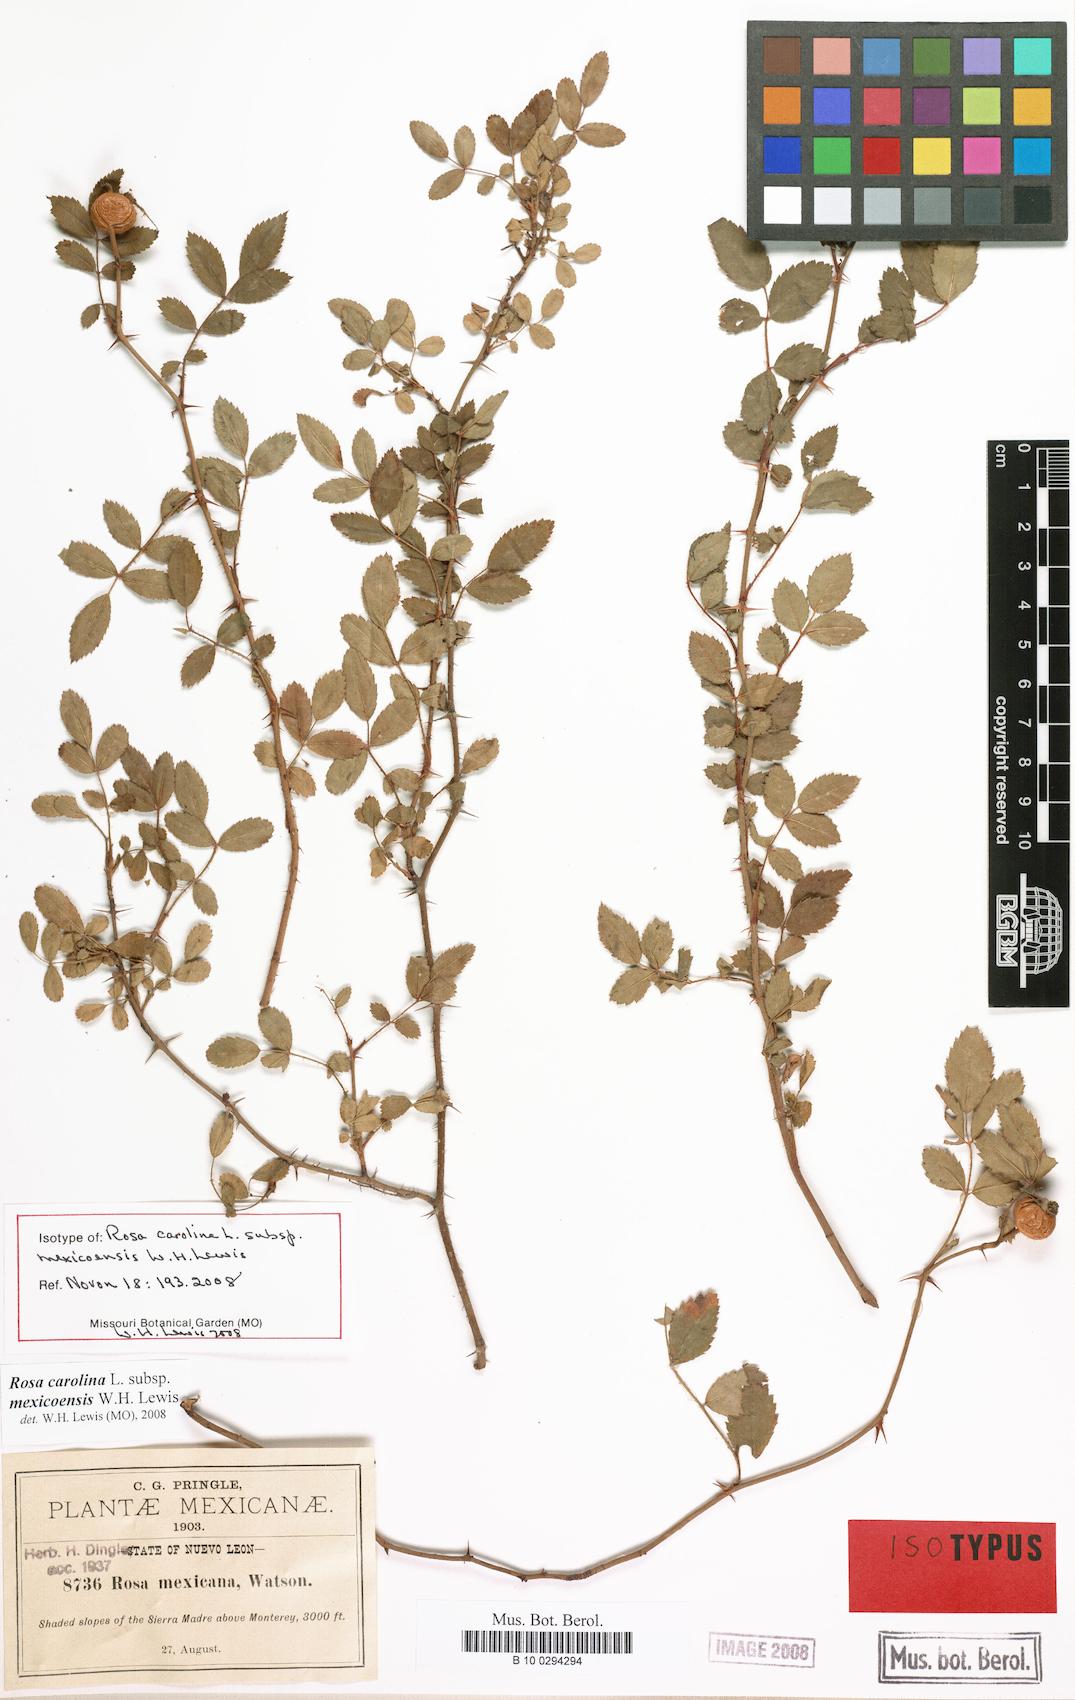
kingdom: Plantae
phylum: Tracheophyta
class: Magnoliopsida
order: Rosales
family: Rosaceae
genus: Rosa
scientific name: Rosa carolina
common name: Pasture rose
